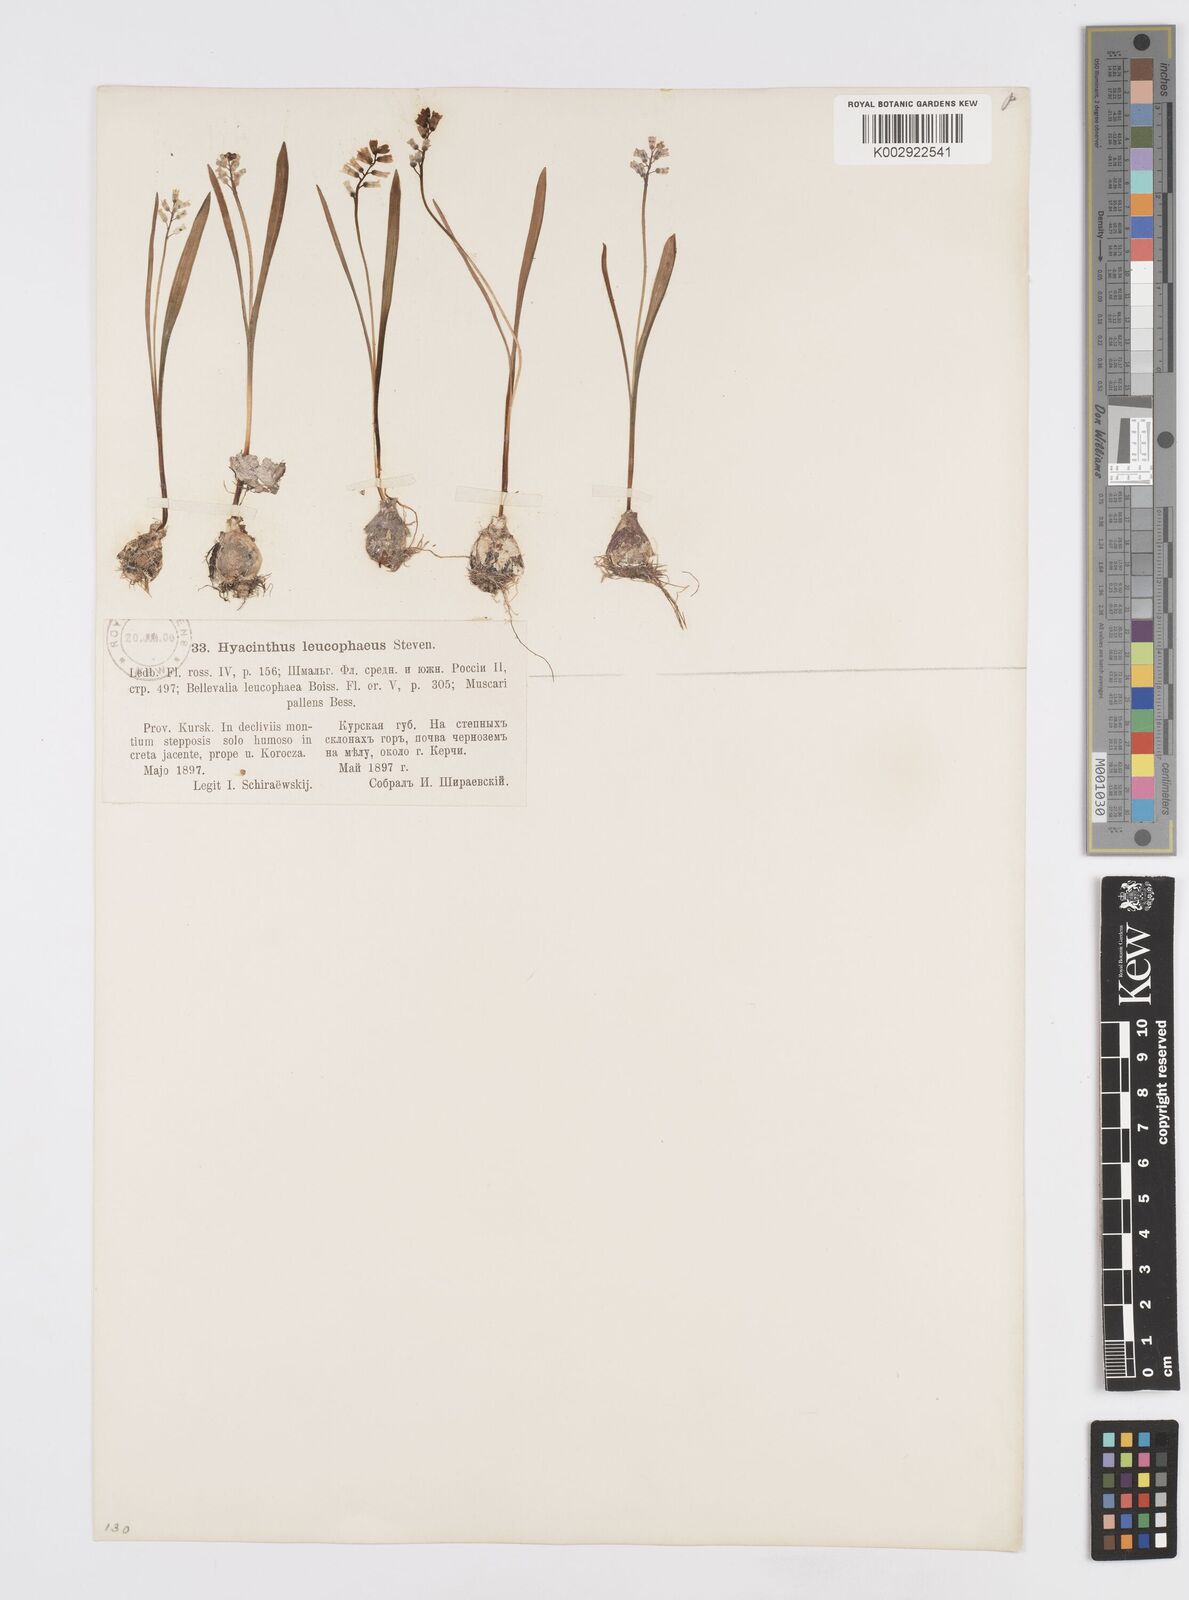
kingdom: Plantae
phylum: Tracheophyta
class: Liliopsida
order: Asparagales
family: Asparagaceae
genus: Hyacinthella
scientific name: Hyacinthella leucophaea
